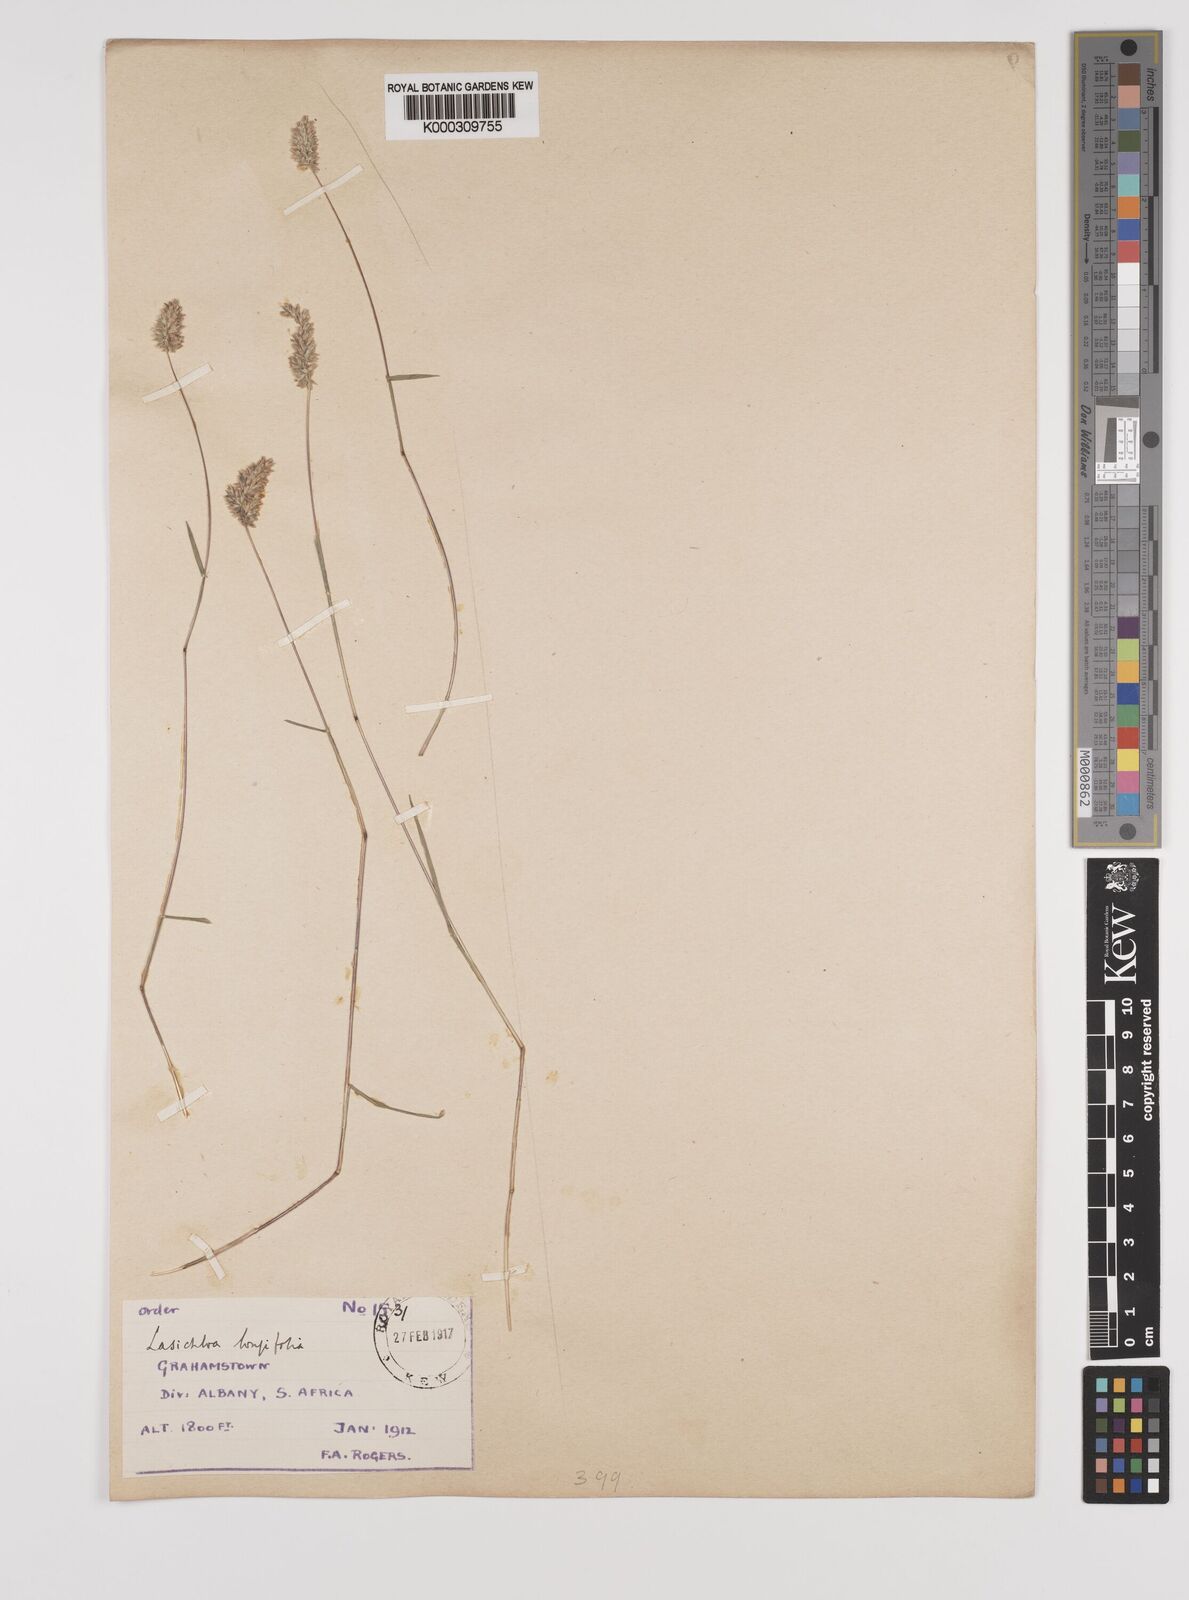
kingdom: Plantae
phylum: Tracheophyta
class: Liliopsida
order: Poales
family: Poaceae
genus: Tribolium
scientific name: Tribolium hispidum
